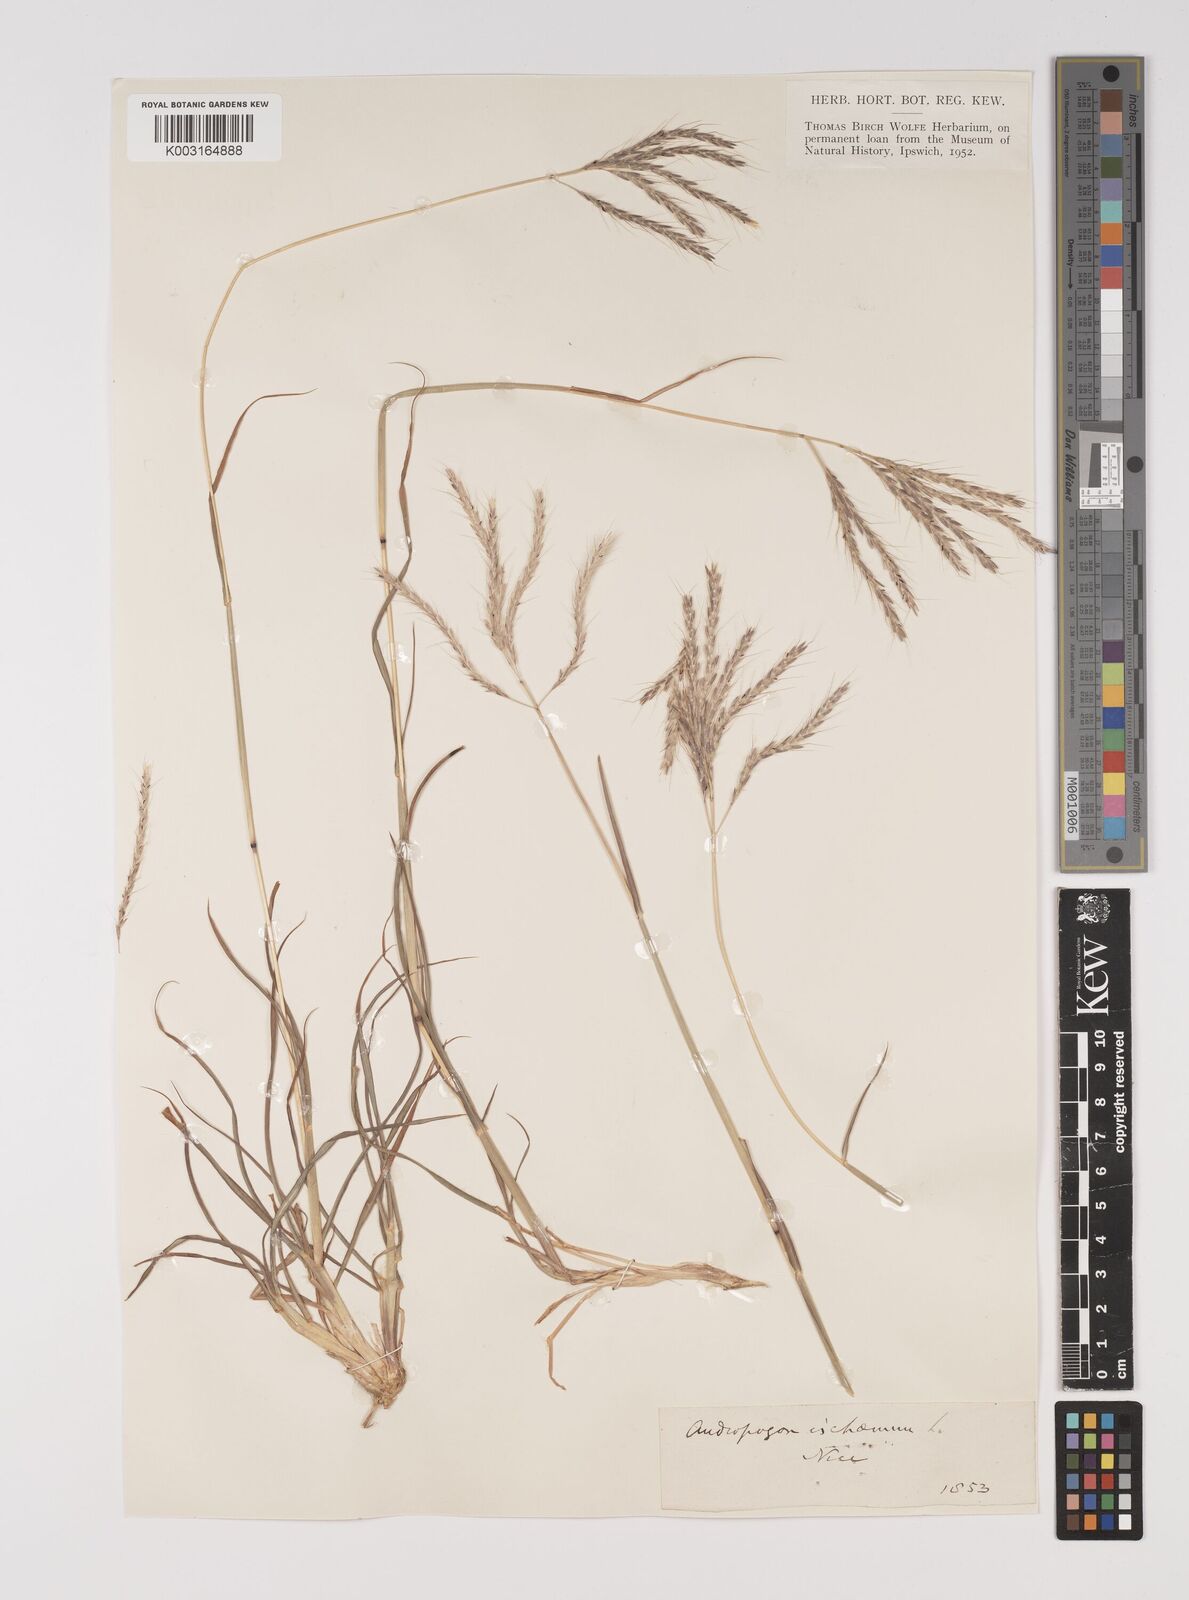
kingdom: Plantae
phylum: Tracheophyta
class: Liliopsida
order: Poales
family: Poaceae
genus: Bothriochloa
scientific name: Bothriochloa ischaemum
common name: Yellow bluestem
